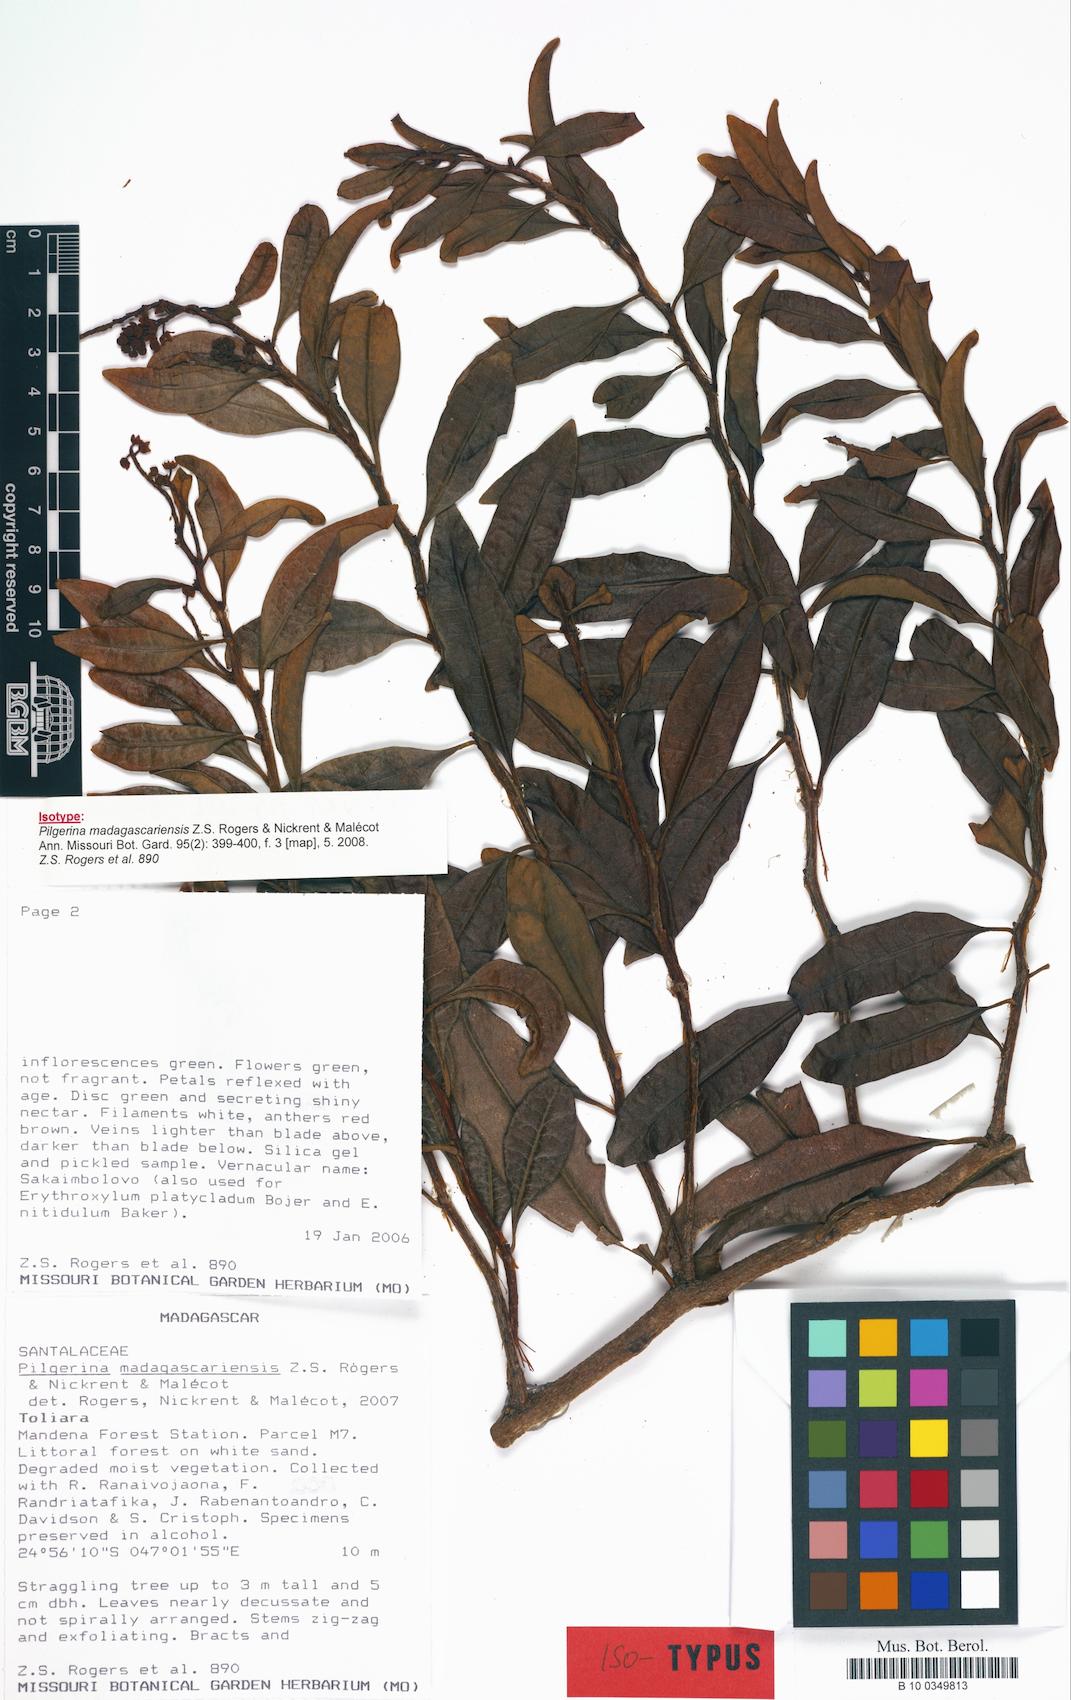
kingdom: Plantae
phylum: Tracheophyta
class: Magnoliopsida
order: Santalales
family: Cervantesiaceae
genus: Pilgerina
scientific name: Pilgerina madagascariensis
